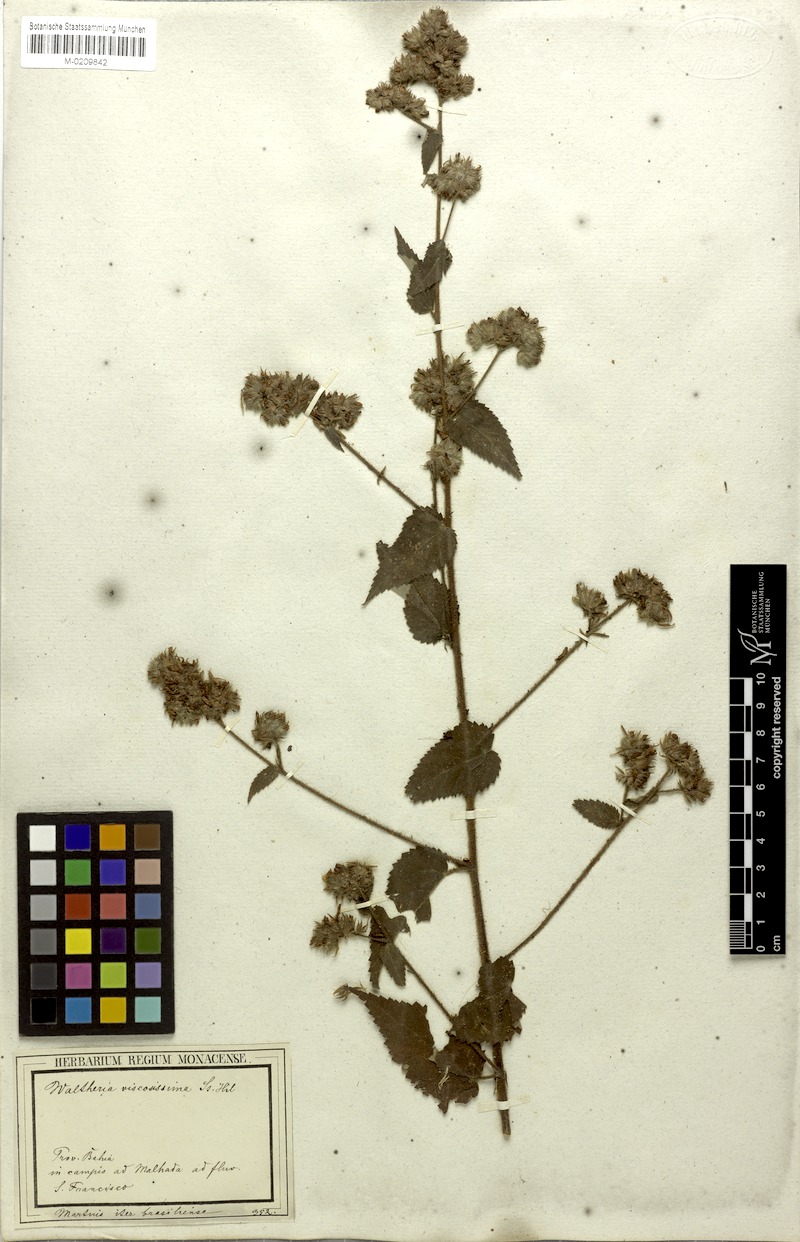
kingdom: Plantae
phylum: Tracheophyta
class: Magnoliopsida
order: Malvales
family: Malvaceae
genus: Waltheria
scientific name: Waltheria viscosissima
